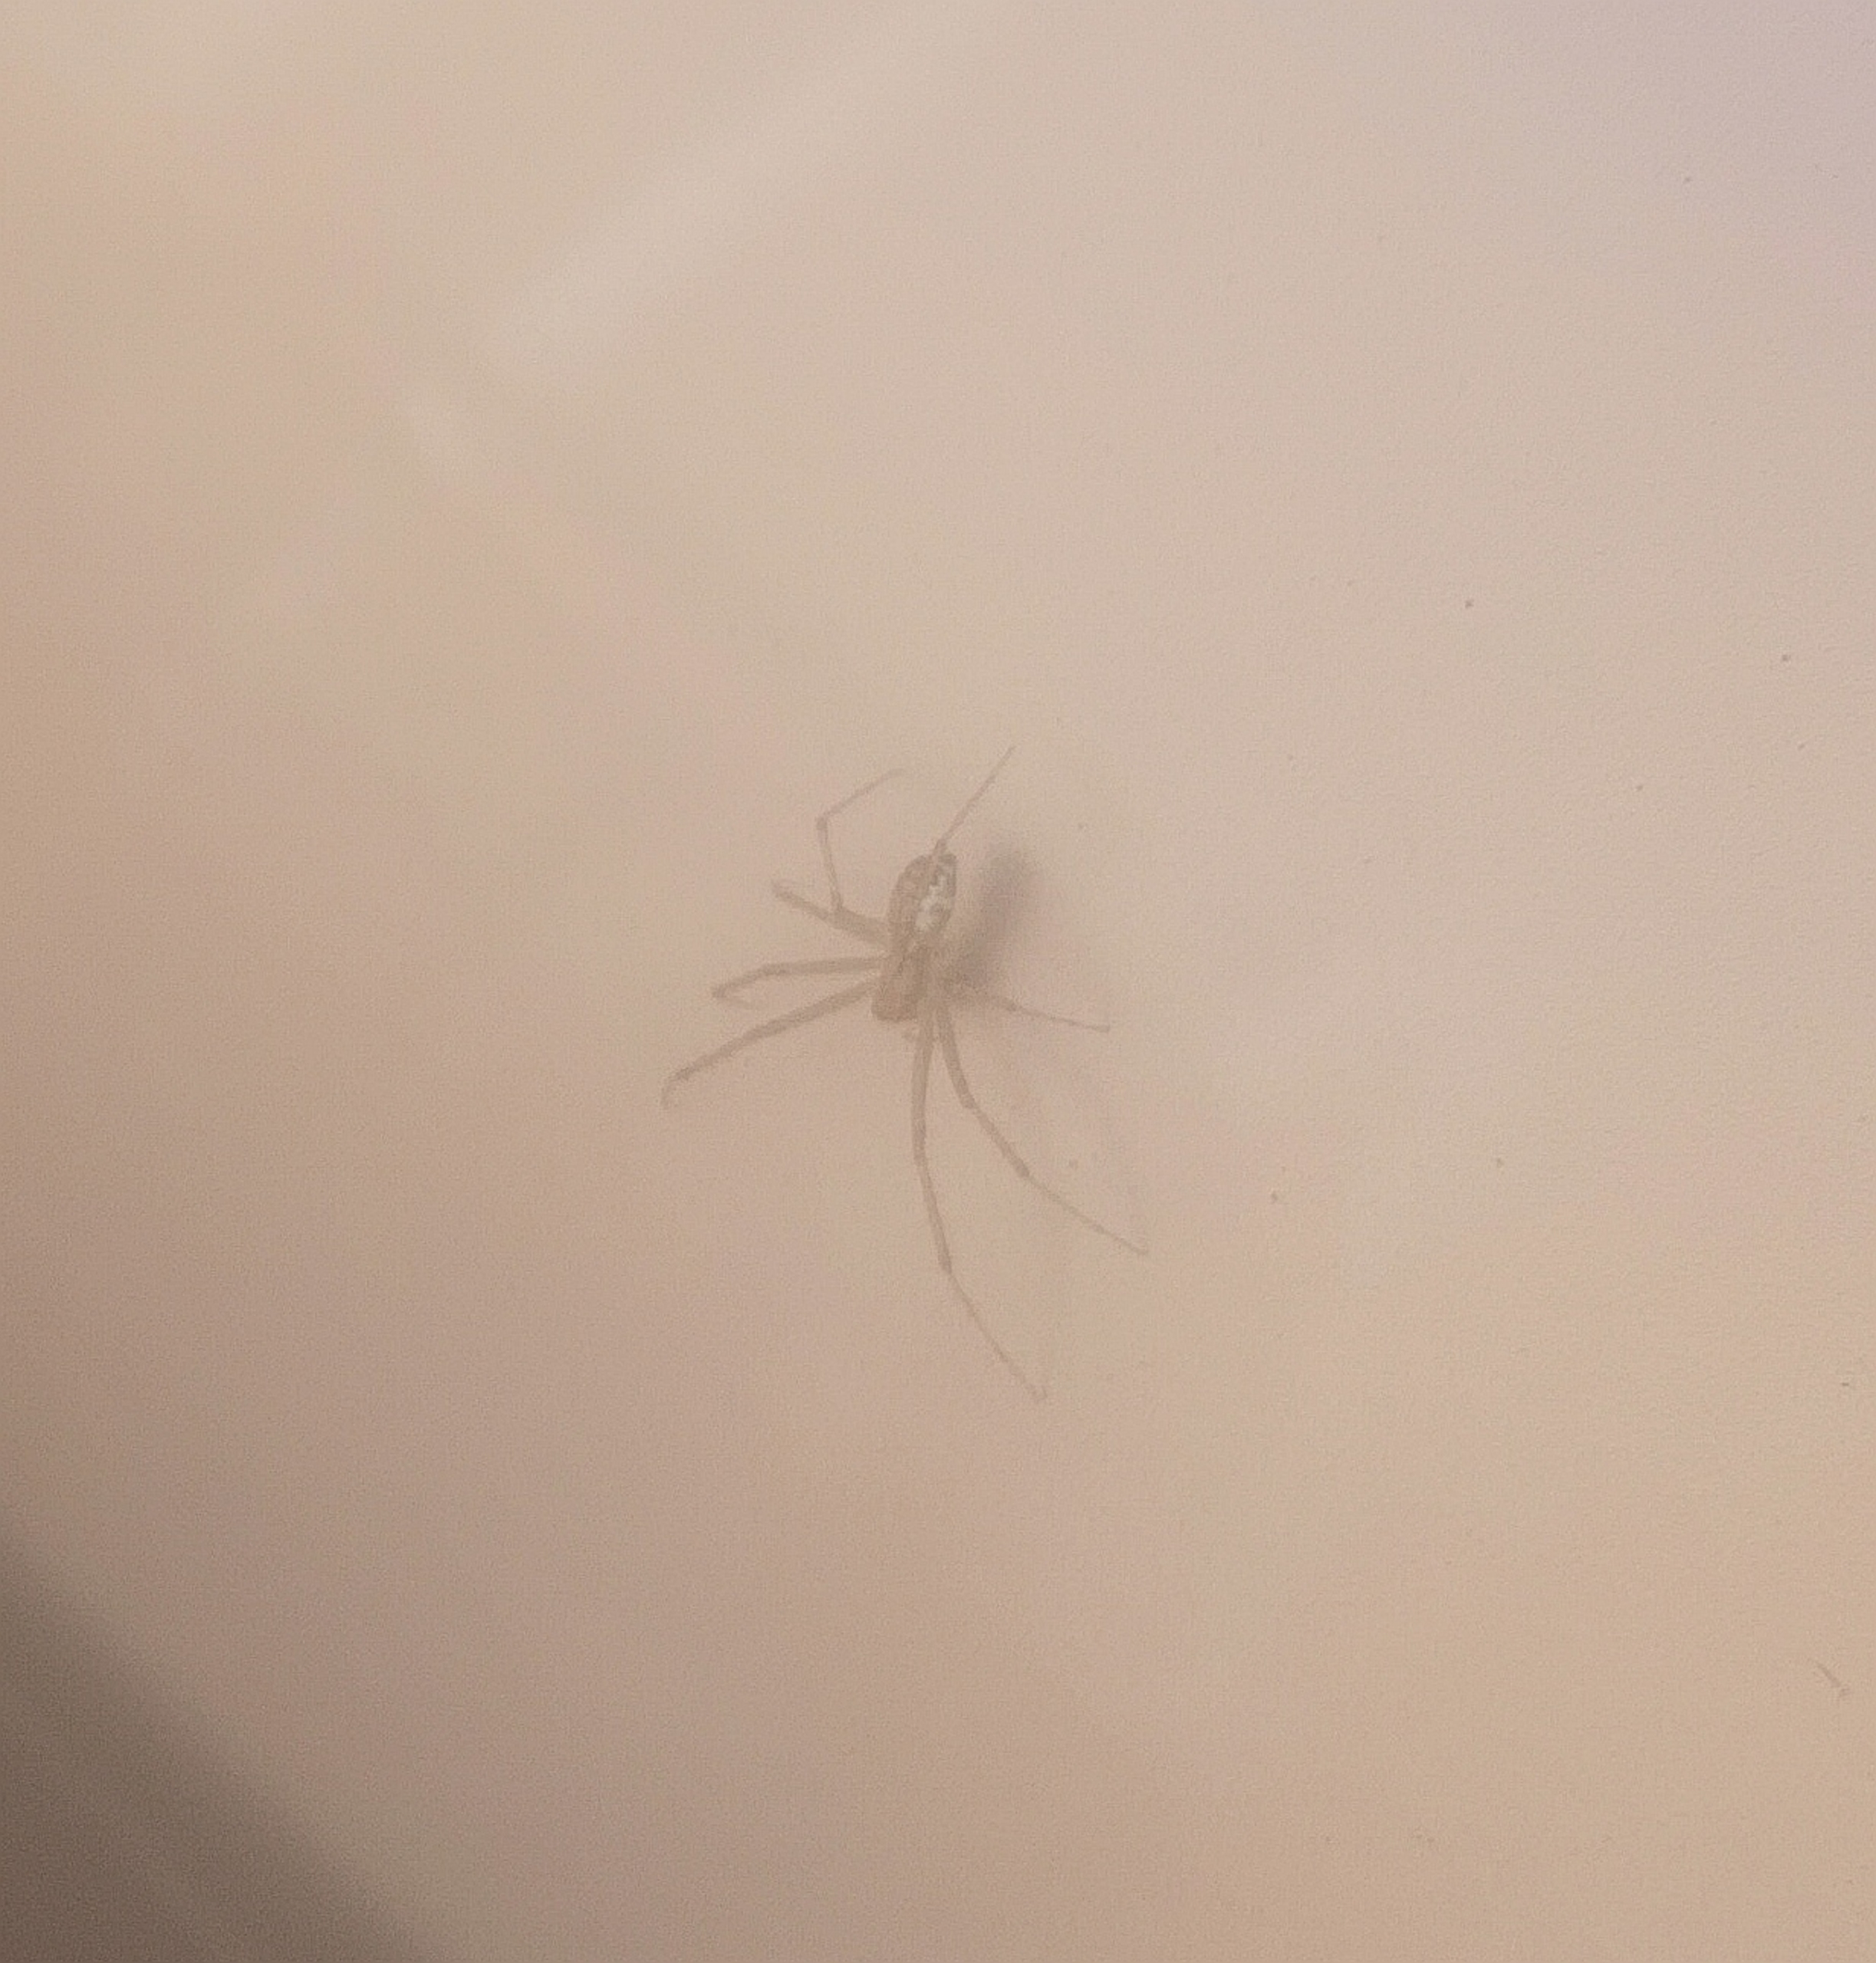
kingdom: Animalia
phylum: Arthropoda
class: Arachnida
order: Araneae
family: Linyphiidae
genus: Linyphia
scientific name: Linyphia triangularis
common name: Almindelig baldakinspinder
